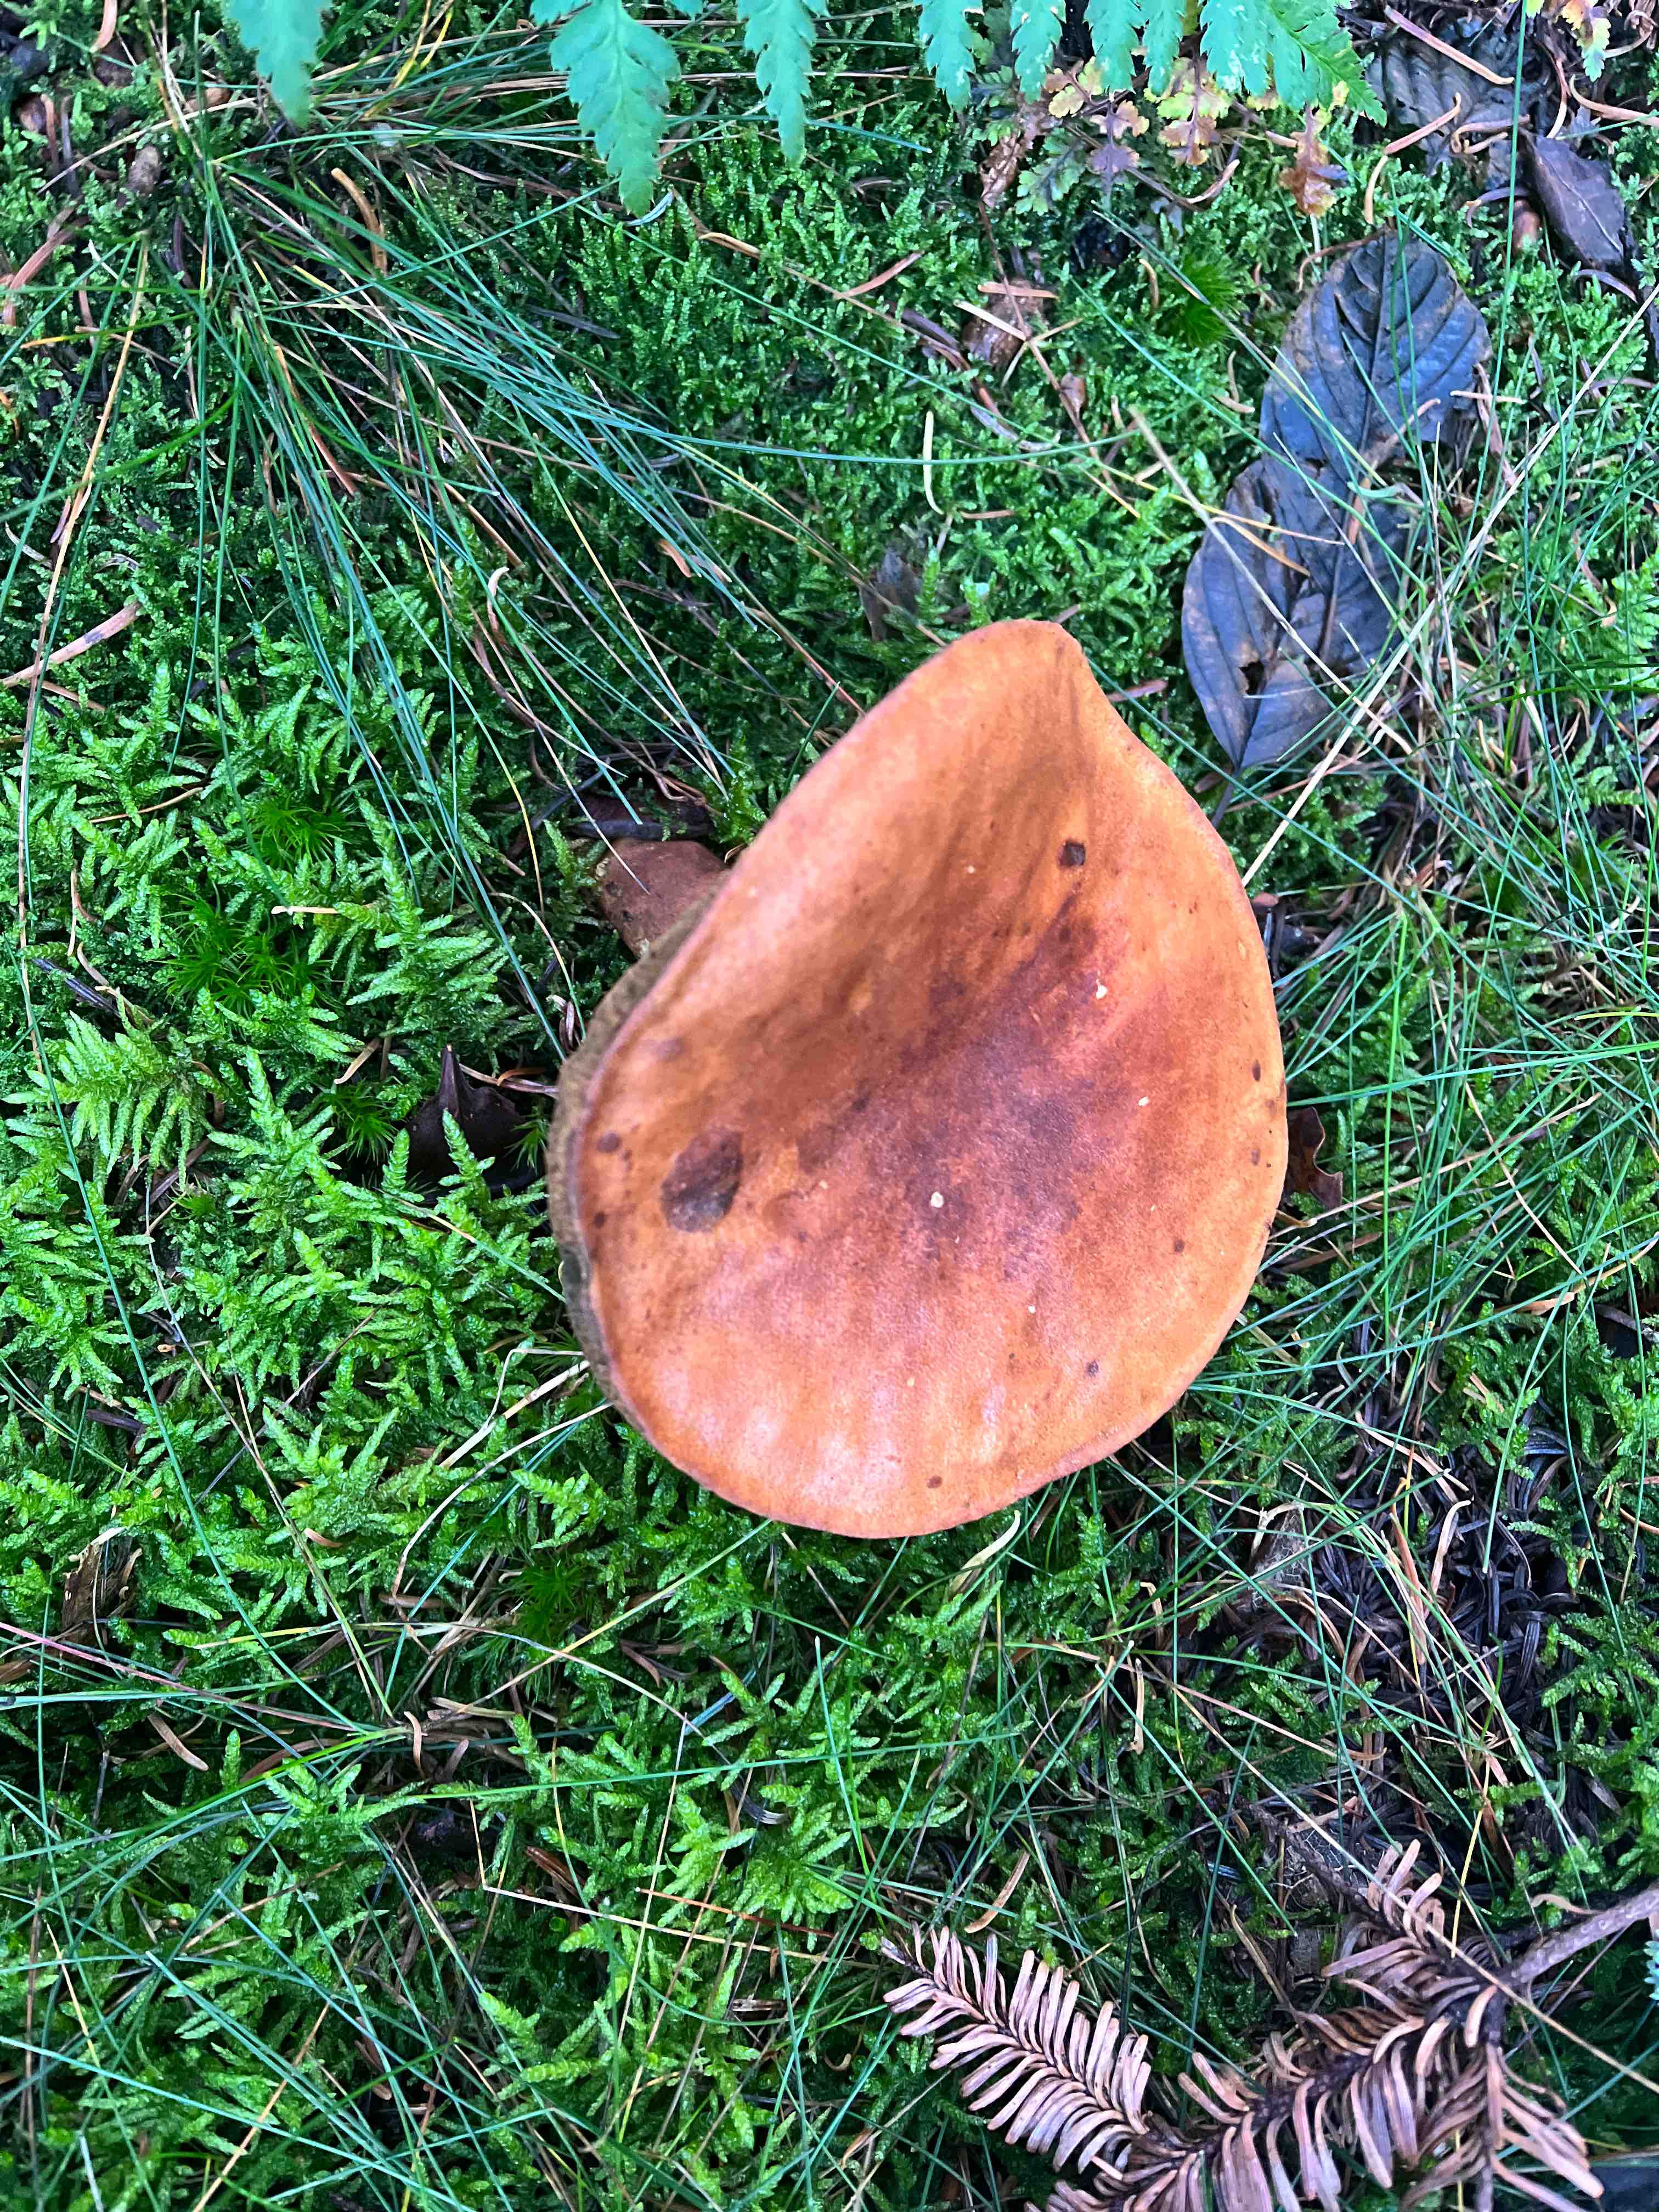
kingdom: Fungi
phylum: Basidiomycota
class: Agaricomycetes
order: Boletales
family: Boletaceae
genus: Imleria
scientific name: Imleria badia
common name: brunstokket rørhat
